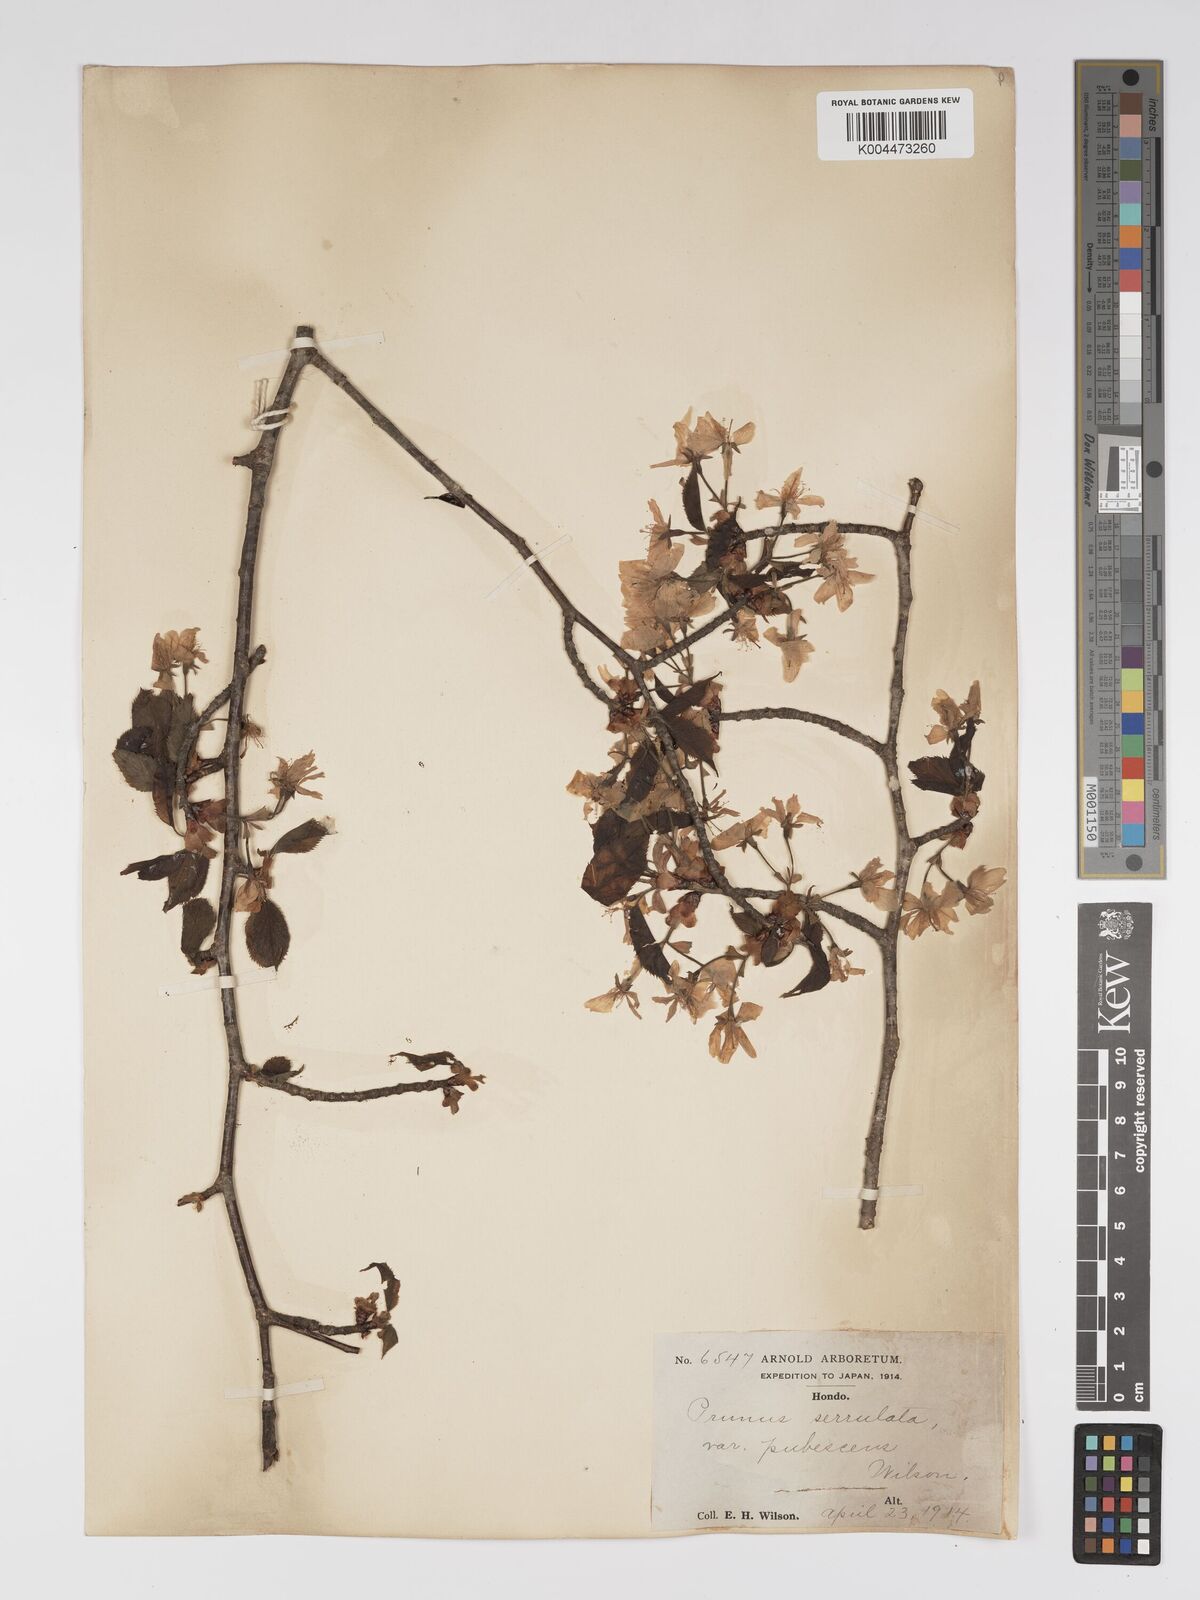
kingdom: Plantae
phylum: Tracheophyta
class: Magnoliopsida
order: Rosales
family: Rosaceae
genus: Prunus
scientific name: Prunus serrulata
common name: Japanese cherry
